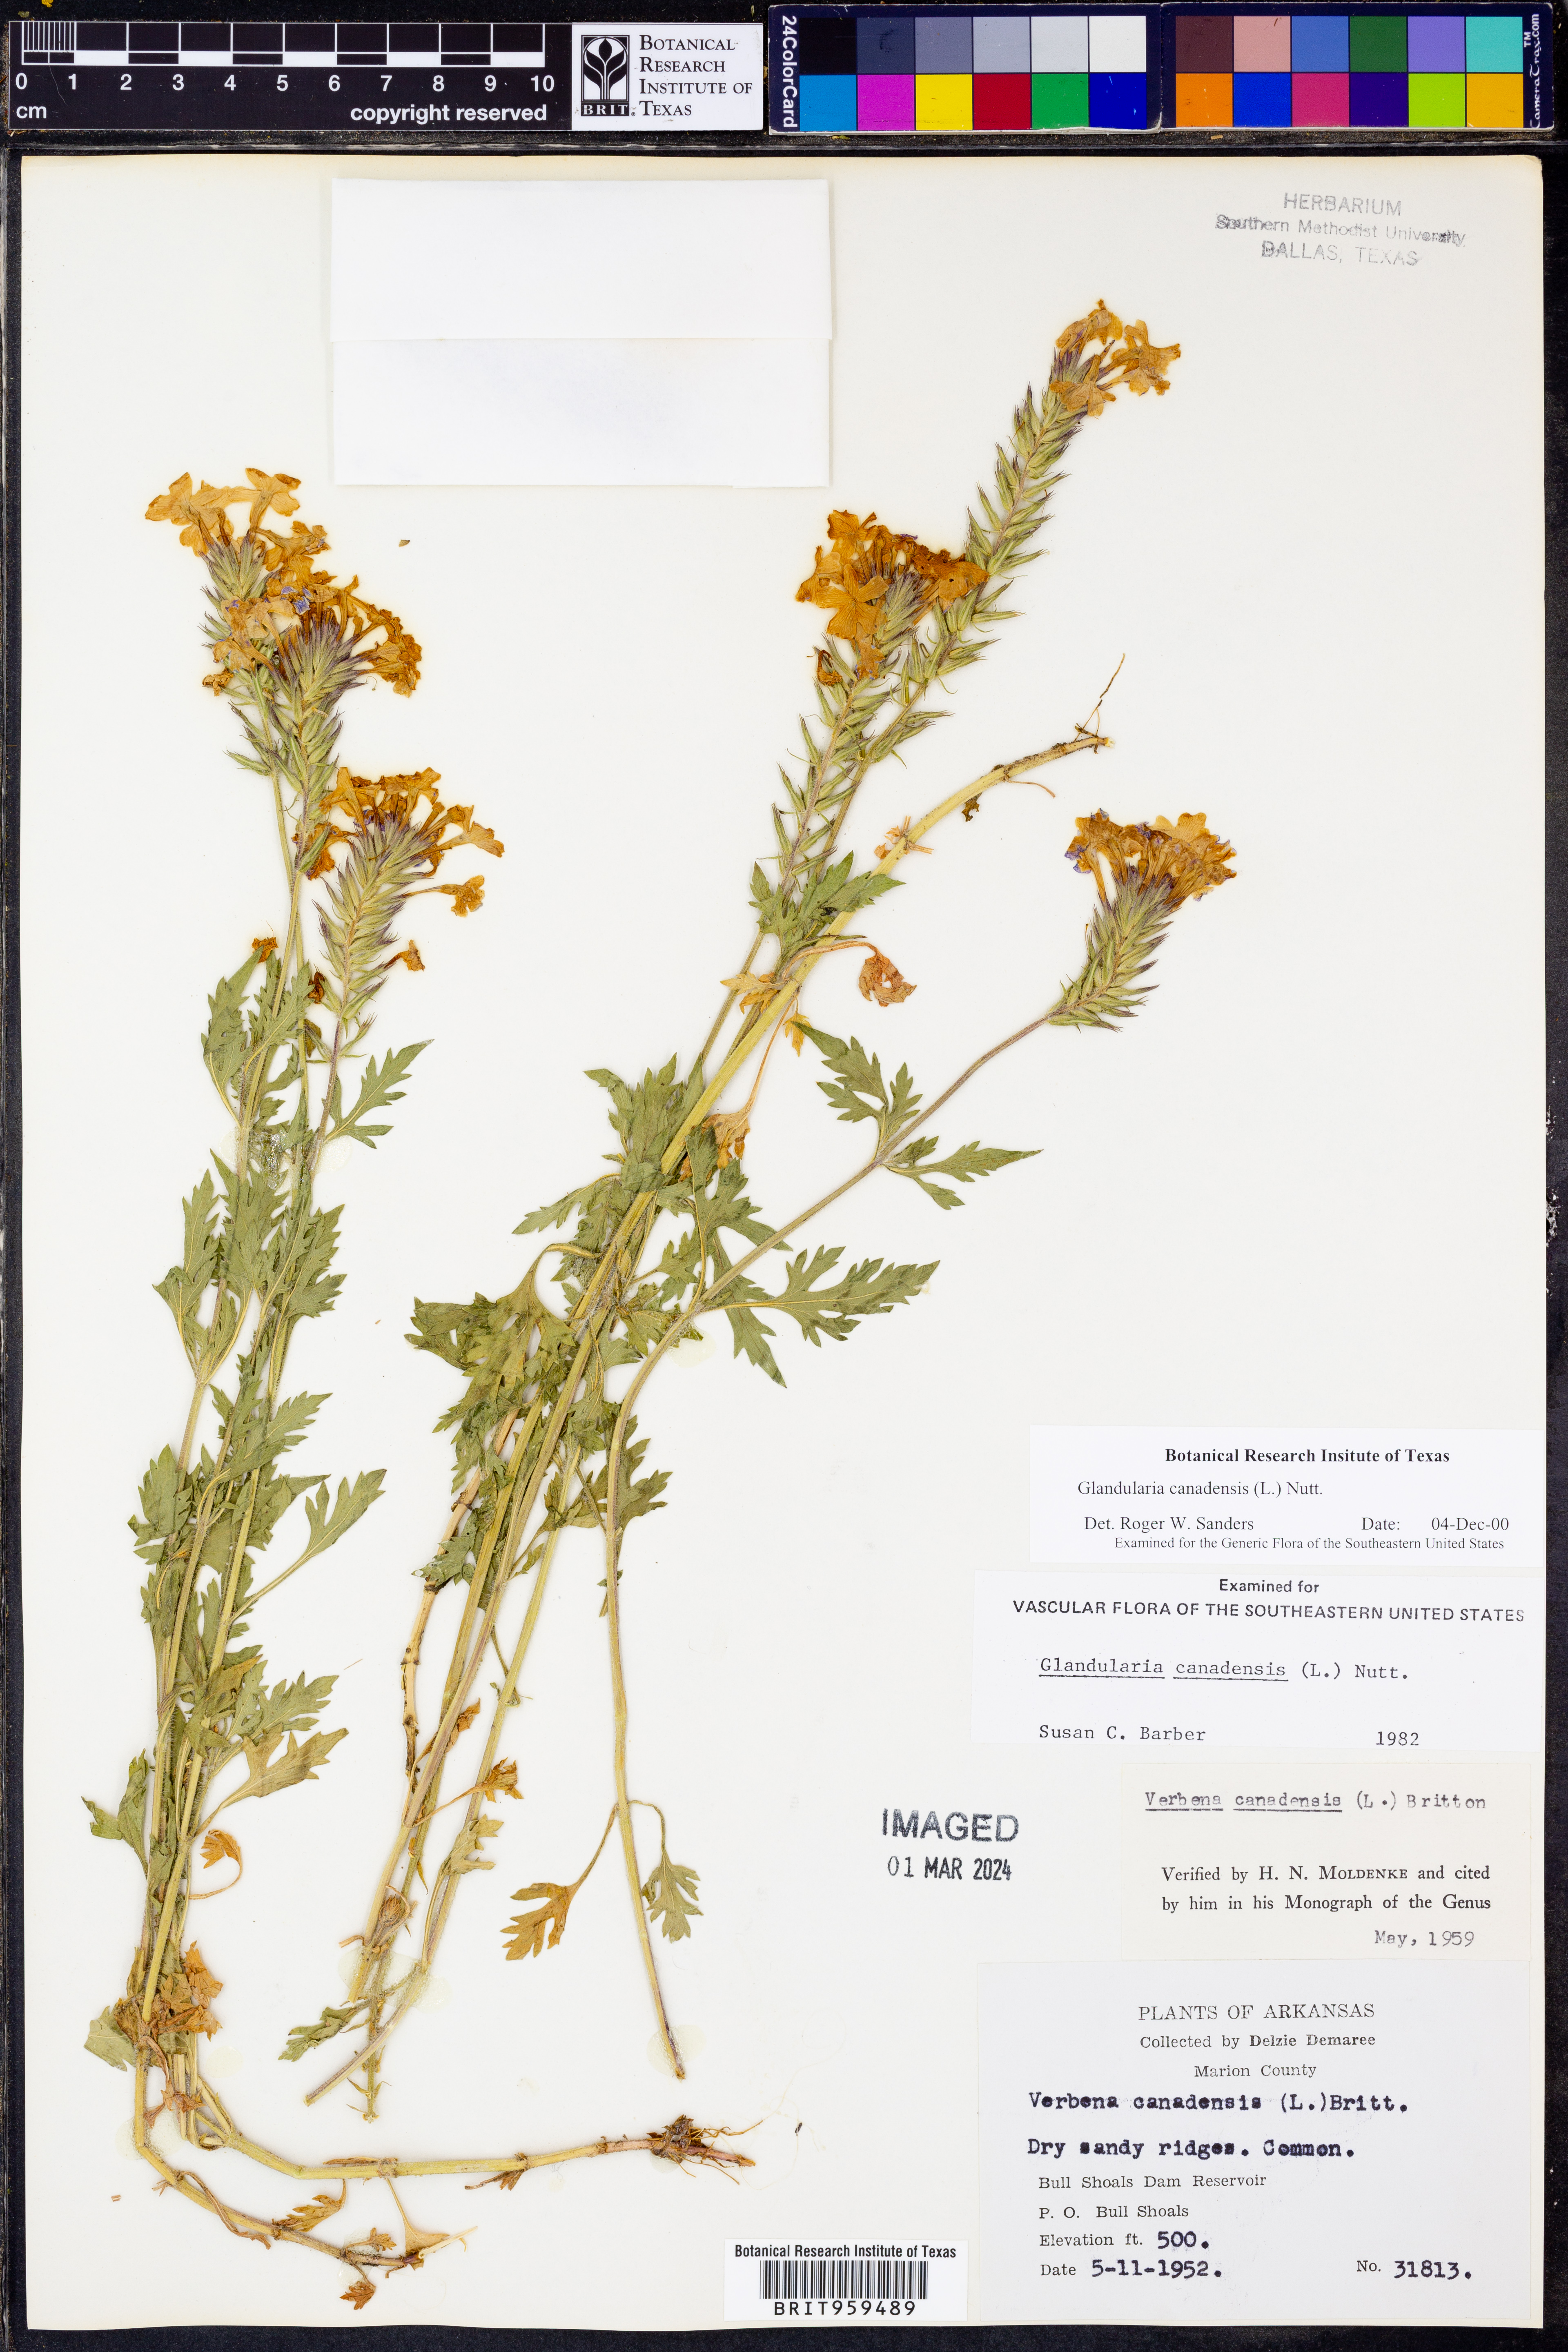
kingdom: Plantae
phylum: Tracheophyta
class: Magnoliopsida
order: Lamiales
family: Verbenaceae
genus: Verbena
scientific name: Verbena canadensis
